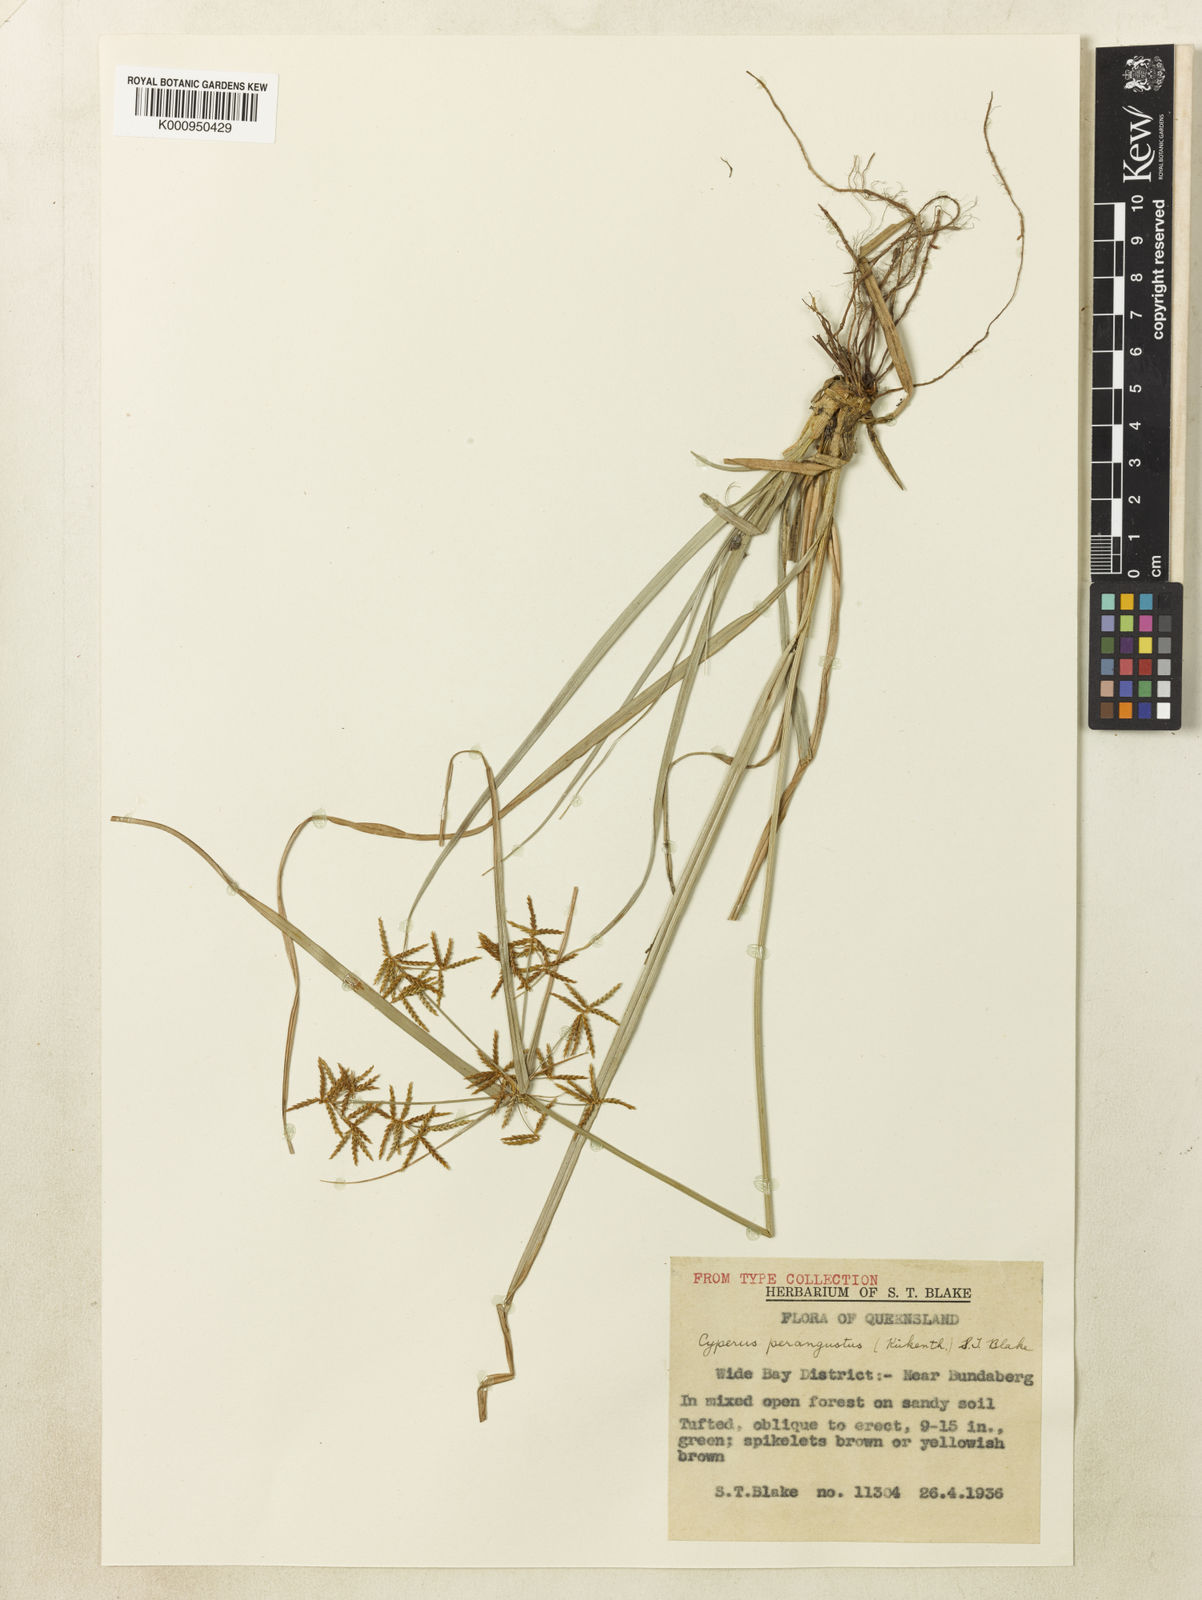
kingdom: Plantae
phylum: Tracheophyta
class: Liliopsida
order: Poales
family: Cyperaceae
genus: Cyperus
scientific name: Cyperus perangustus
